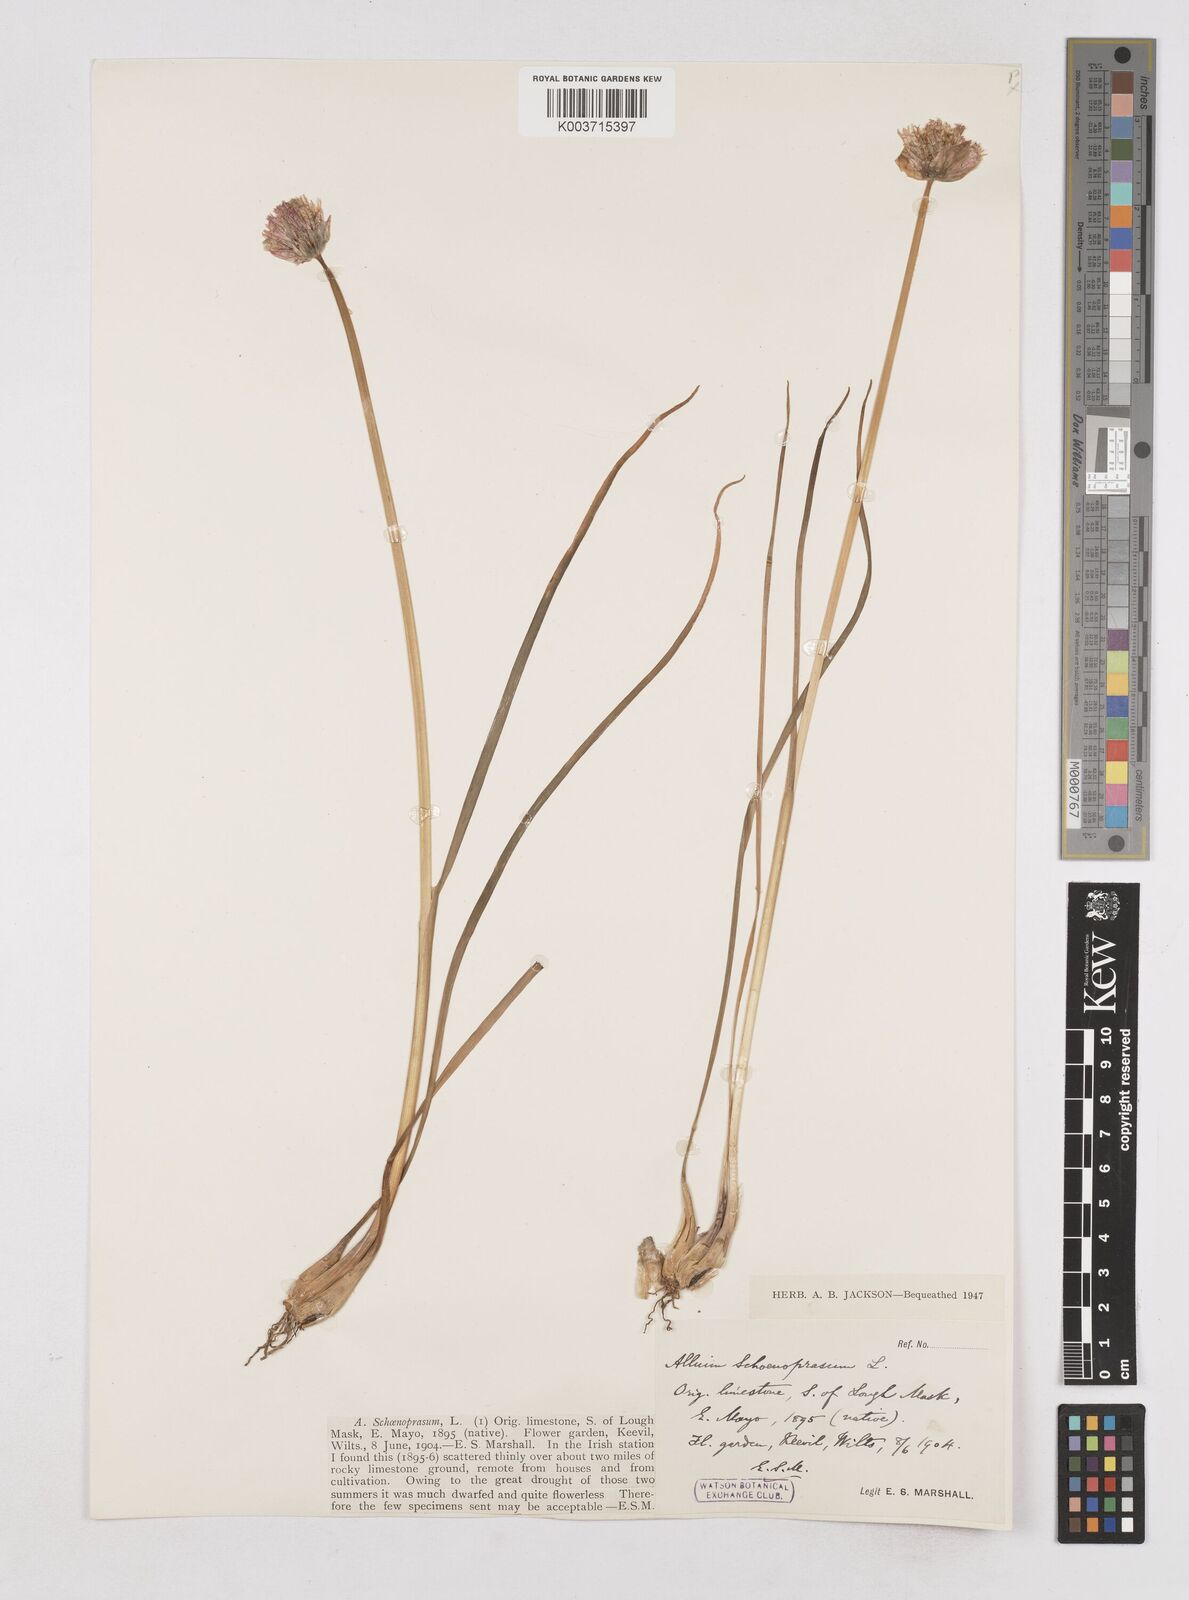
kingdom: Plantae
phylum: Tracheophyta
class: Liliopsida
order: Asparagales
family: Amaryllidaceae
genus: Allium
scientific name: Allium schoenoprasum
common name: Chives
